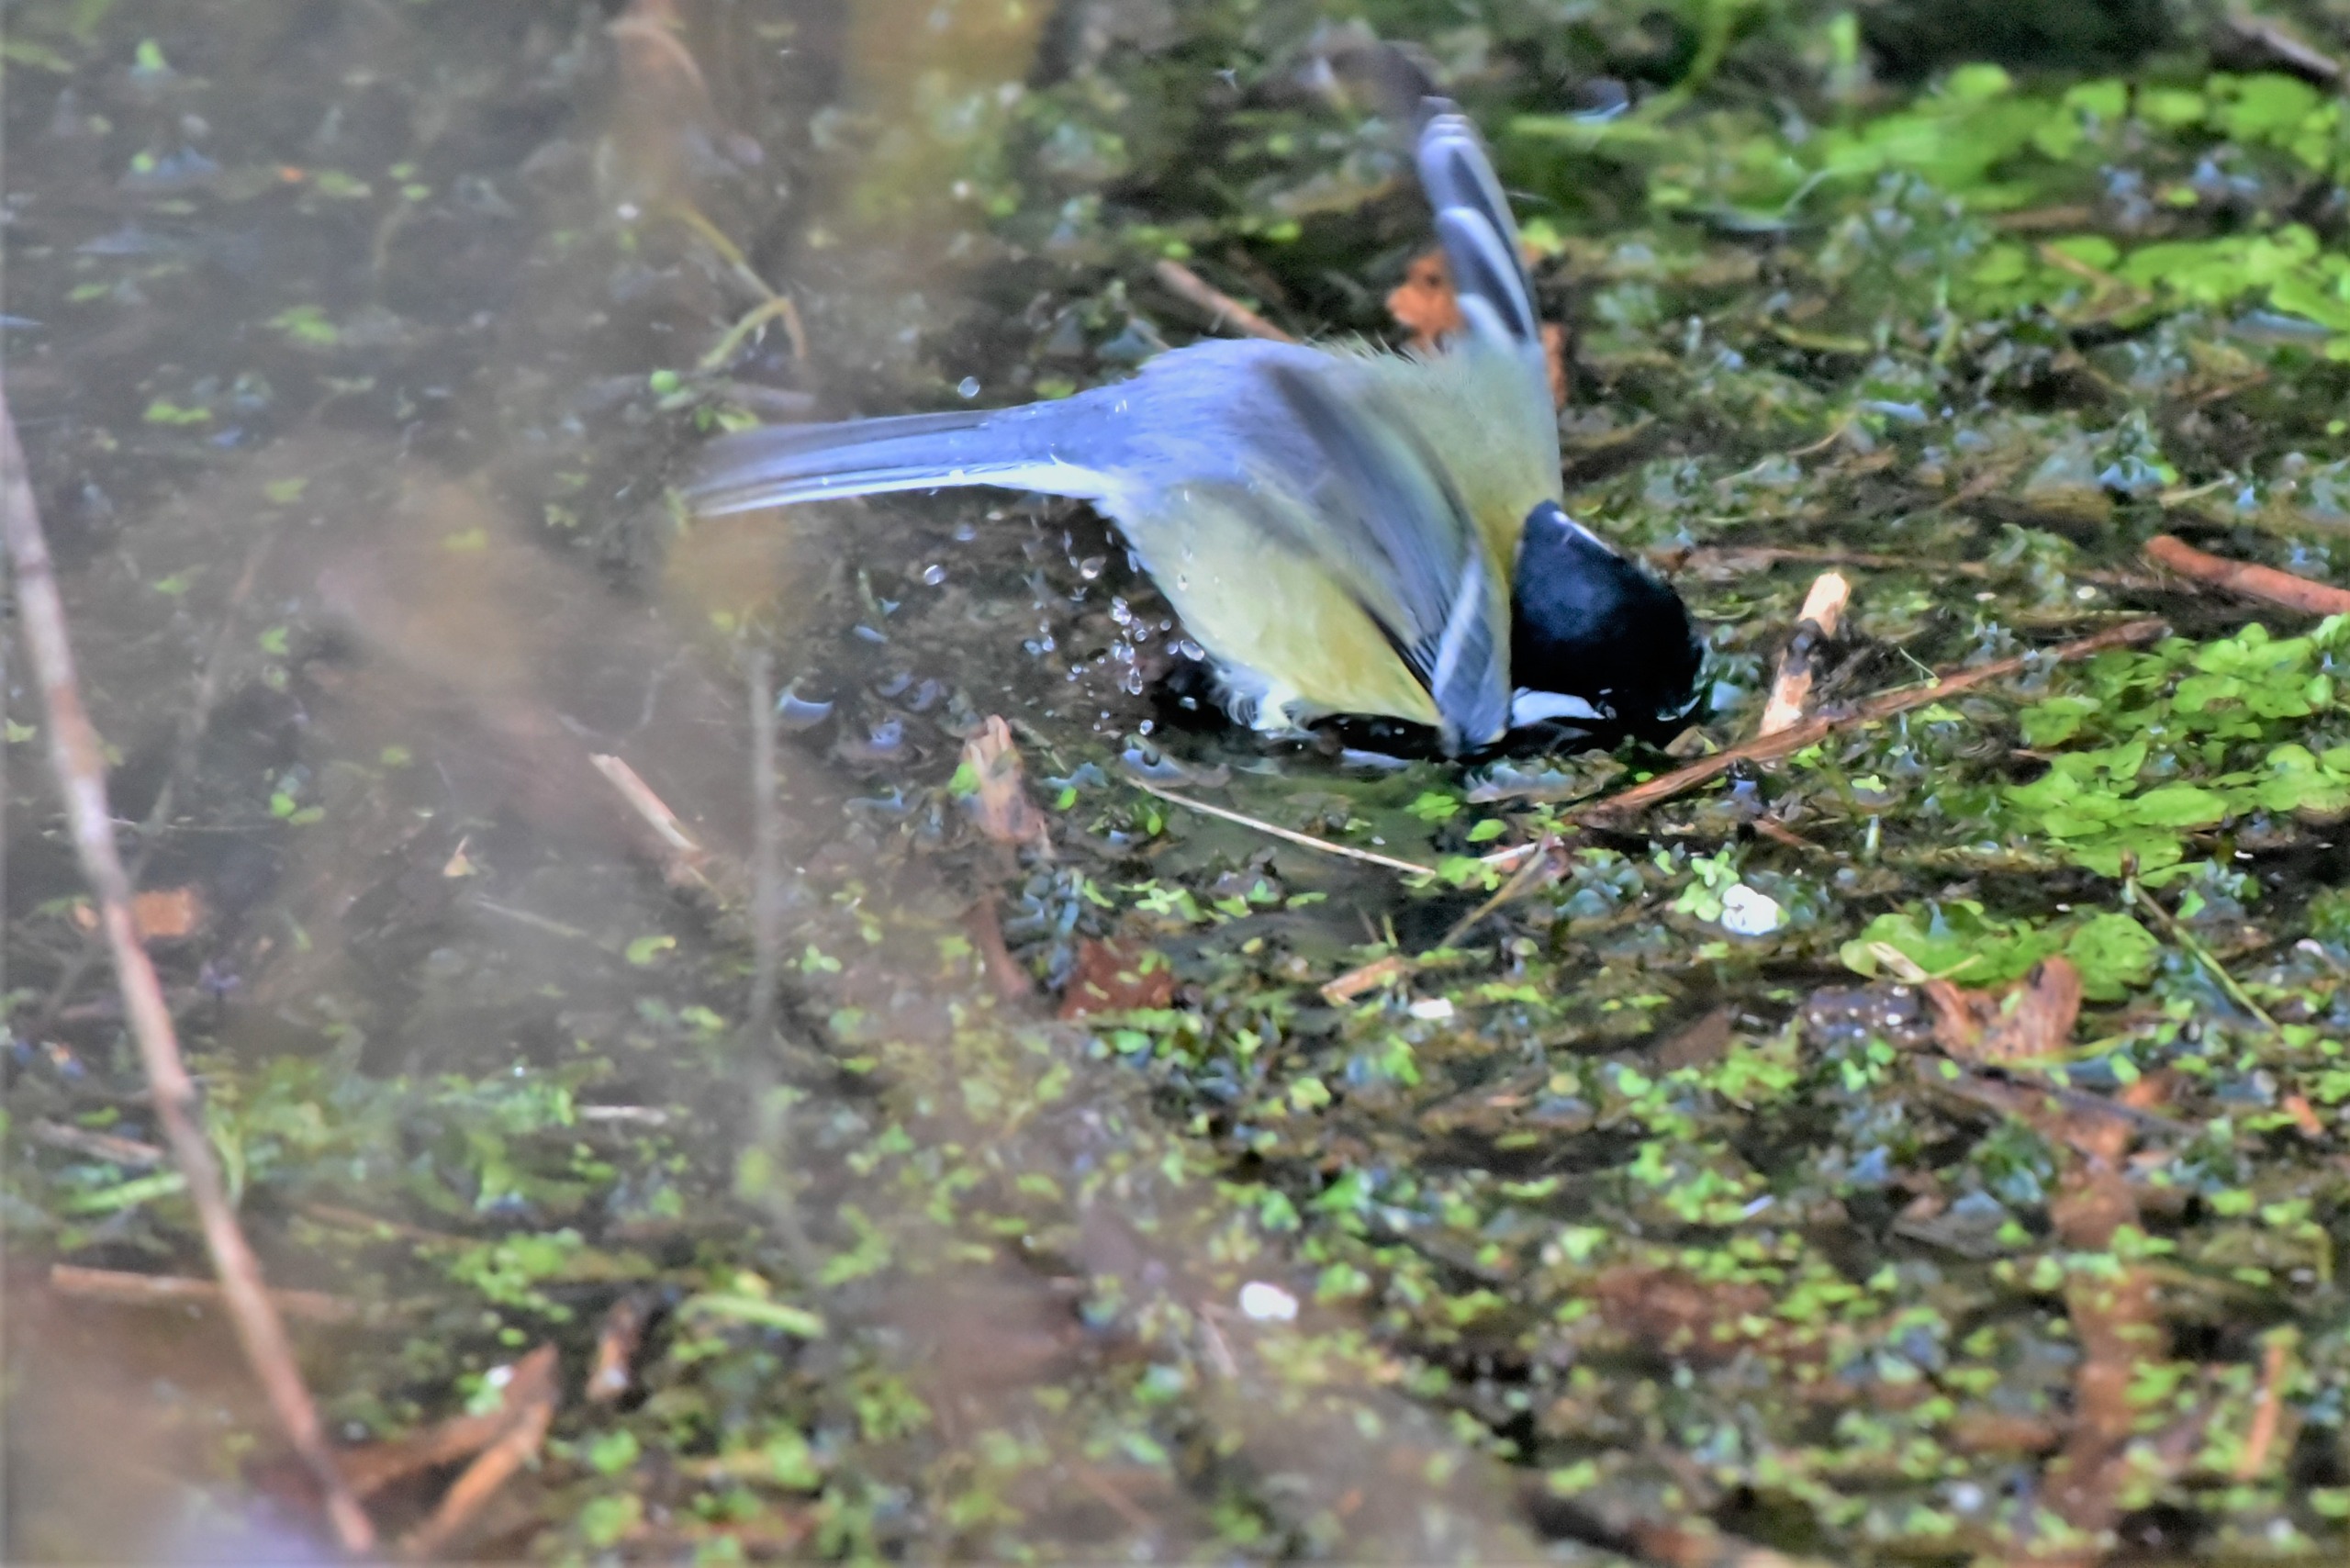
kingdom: Animalia
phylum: Chordata
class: Aves
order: Passeriformes
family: Paridae
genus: Parus
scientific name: Parus major
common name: Musvit
